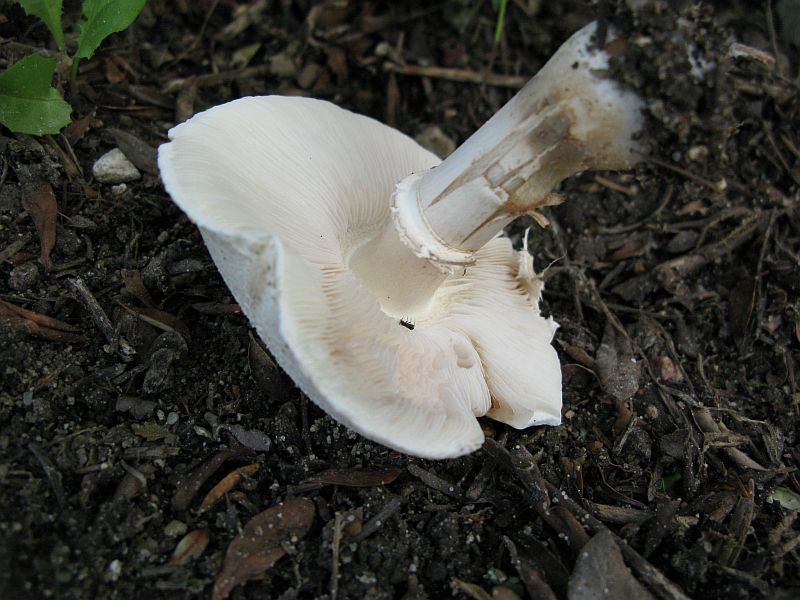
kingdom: Fungi
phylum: Basidiomycota
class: Agaricomycetes
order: Agaricales
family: Agaricaceae
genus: Leucoagaricus
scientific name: Leucoagaricus carneifolius
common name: grånende silkehat
